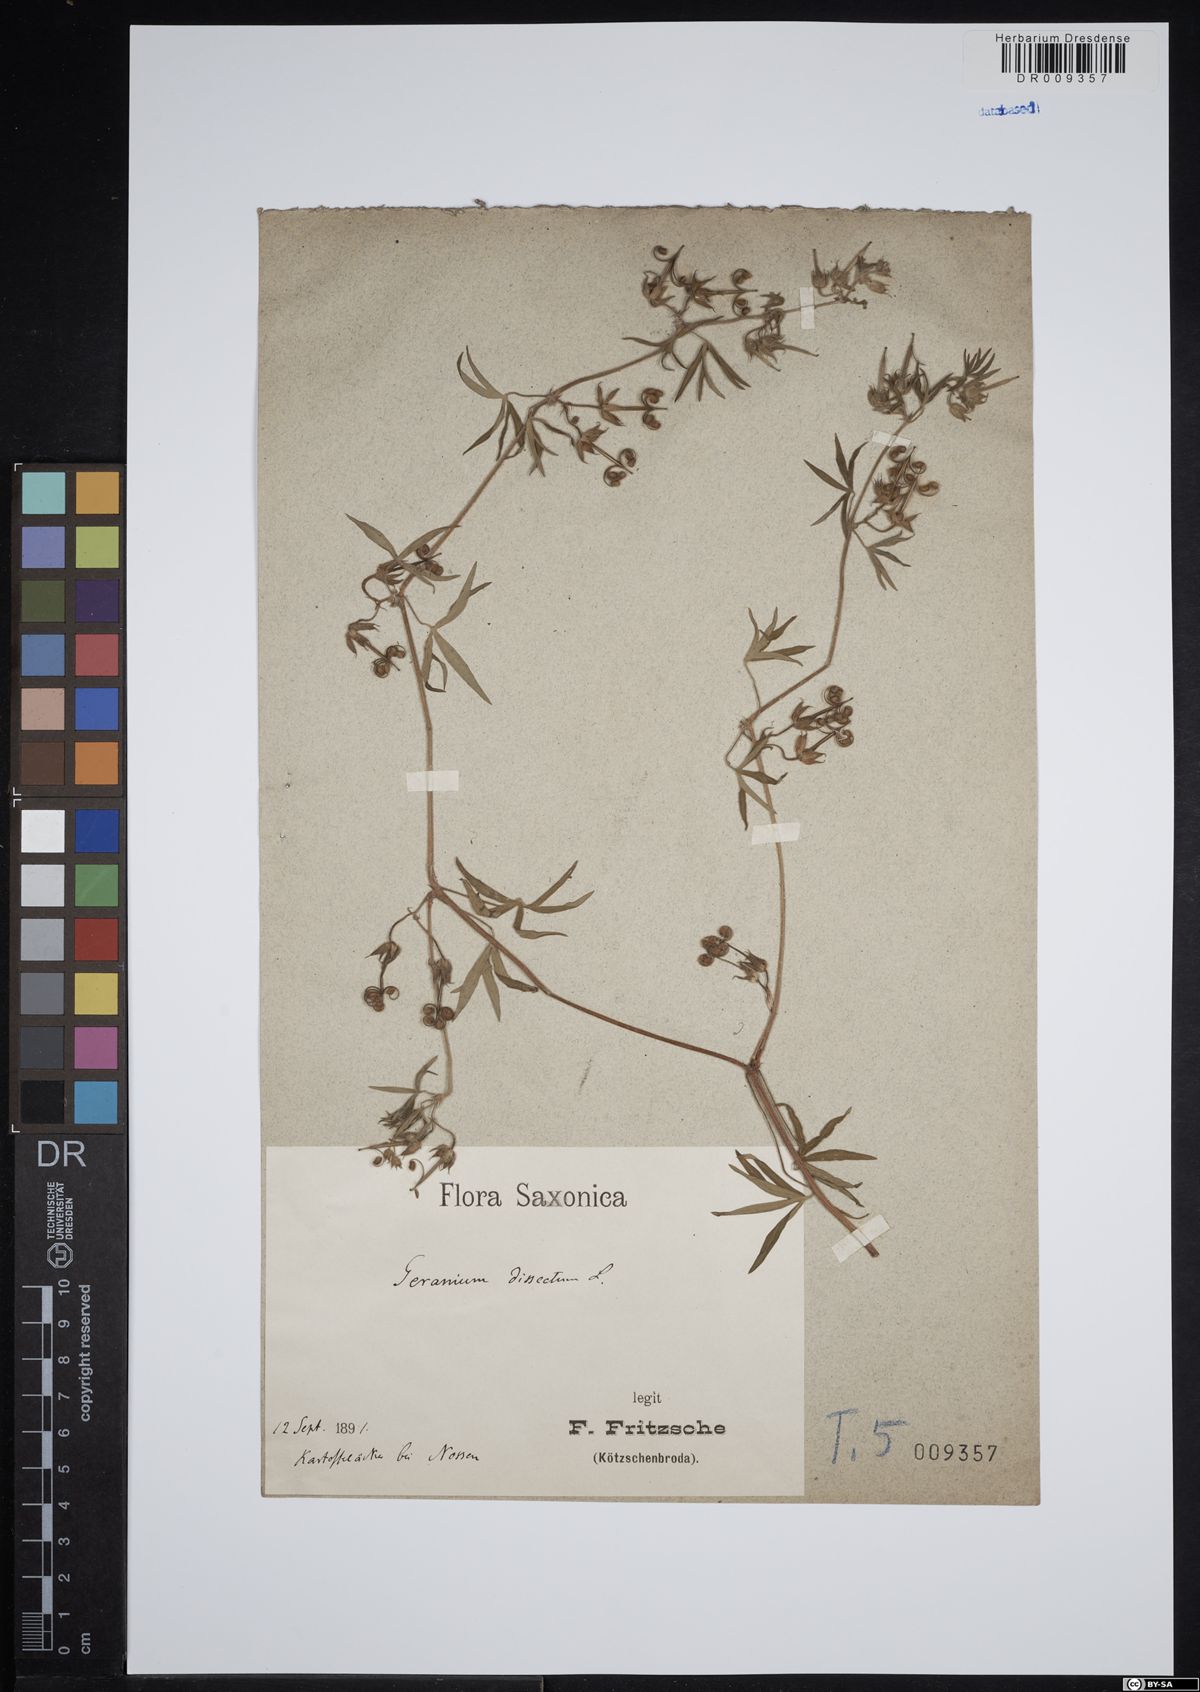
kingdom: Plantae
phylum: Tracheophyta
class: Magnoliopsida
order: Geraniales
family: Geraniaceae
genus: Geranium
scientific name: Geranium dissectum
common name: Cut-leaved crane's-bill
